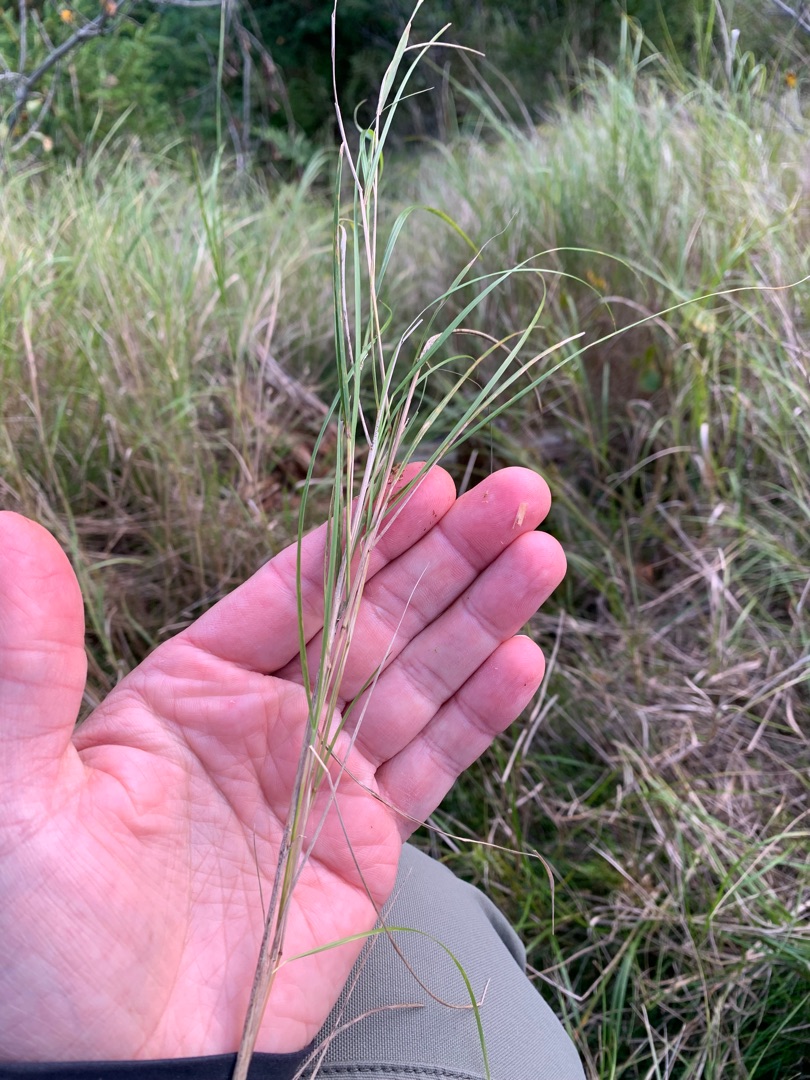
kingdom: Plantae
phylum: Tracheophyta
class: Liliopsida
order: Poales
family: Poaceae
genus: Calamagrostis
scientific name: Calamagrostis canescens
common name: Eng-rørhvene
